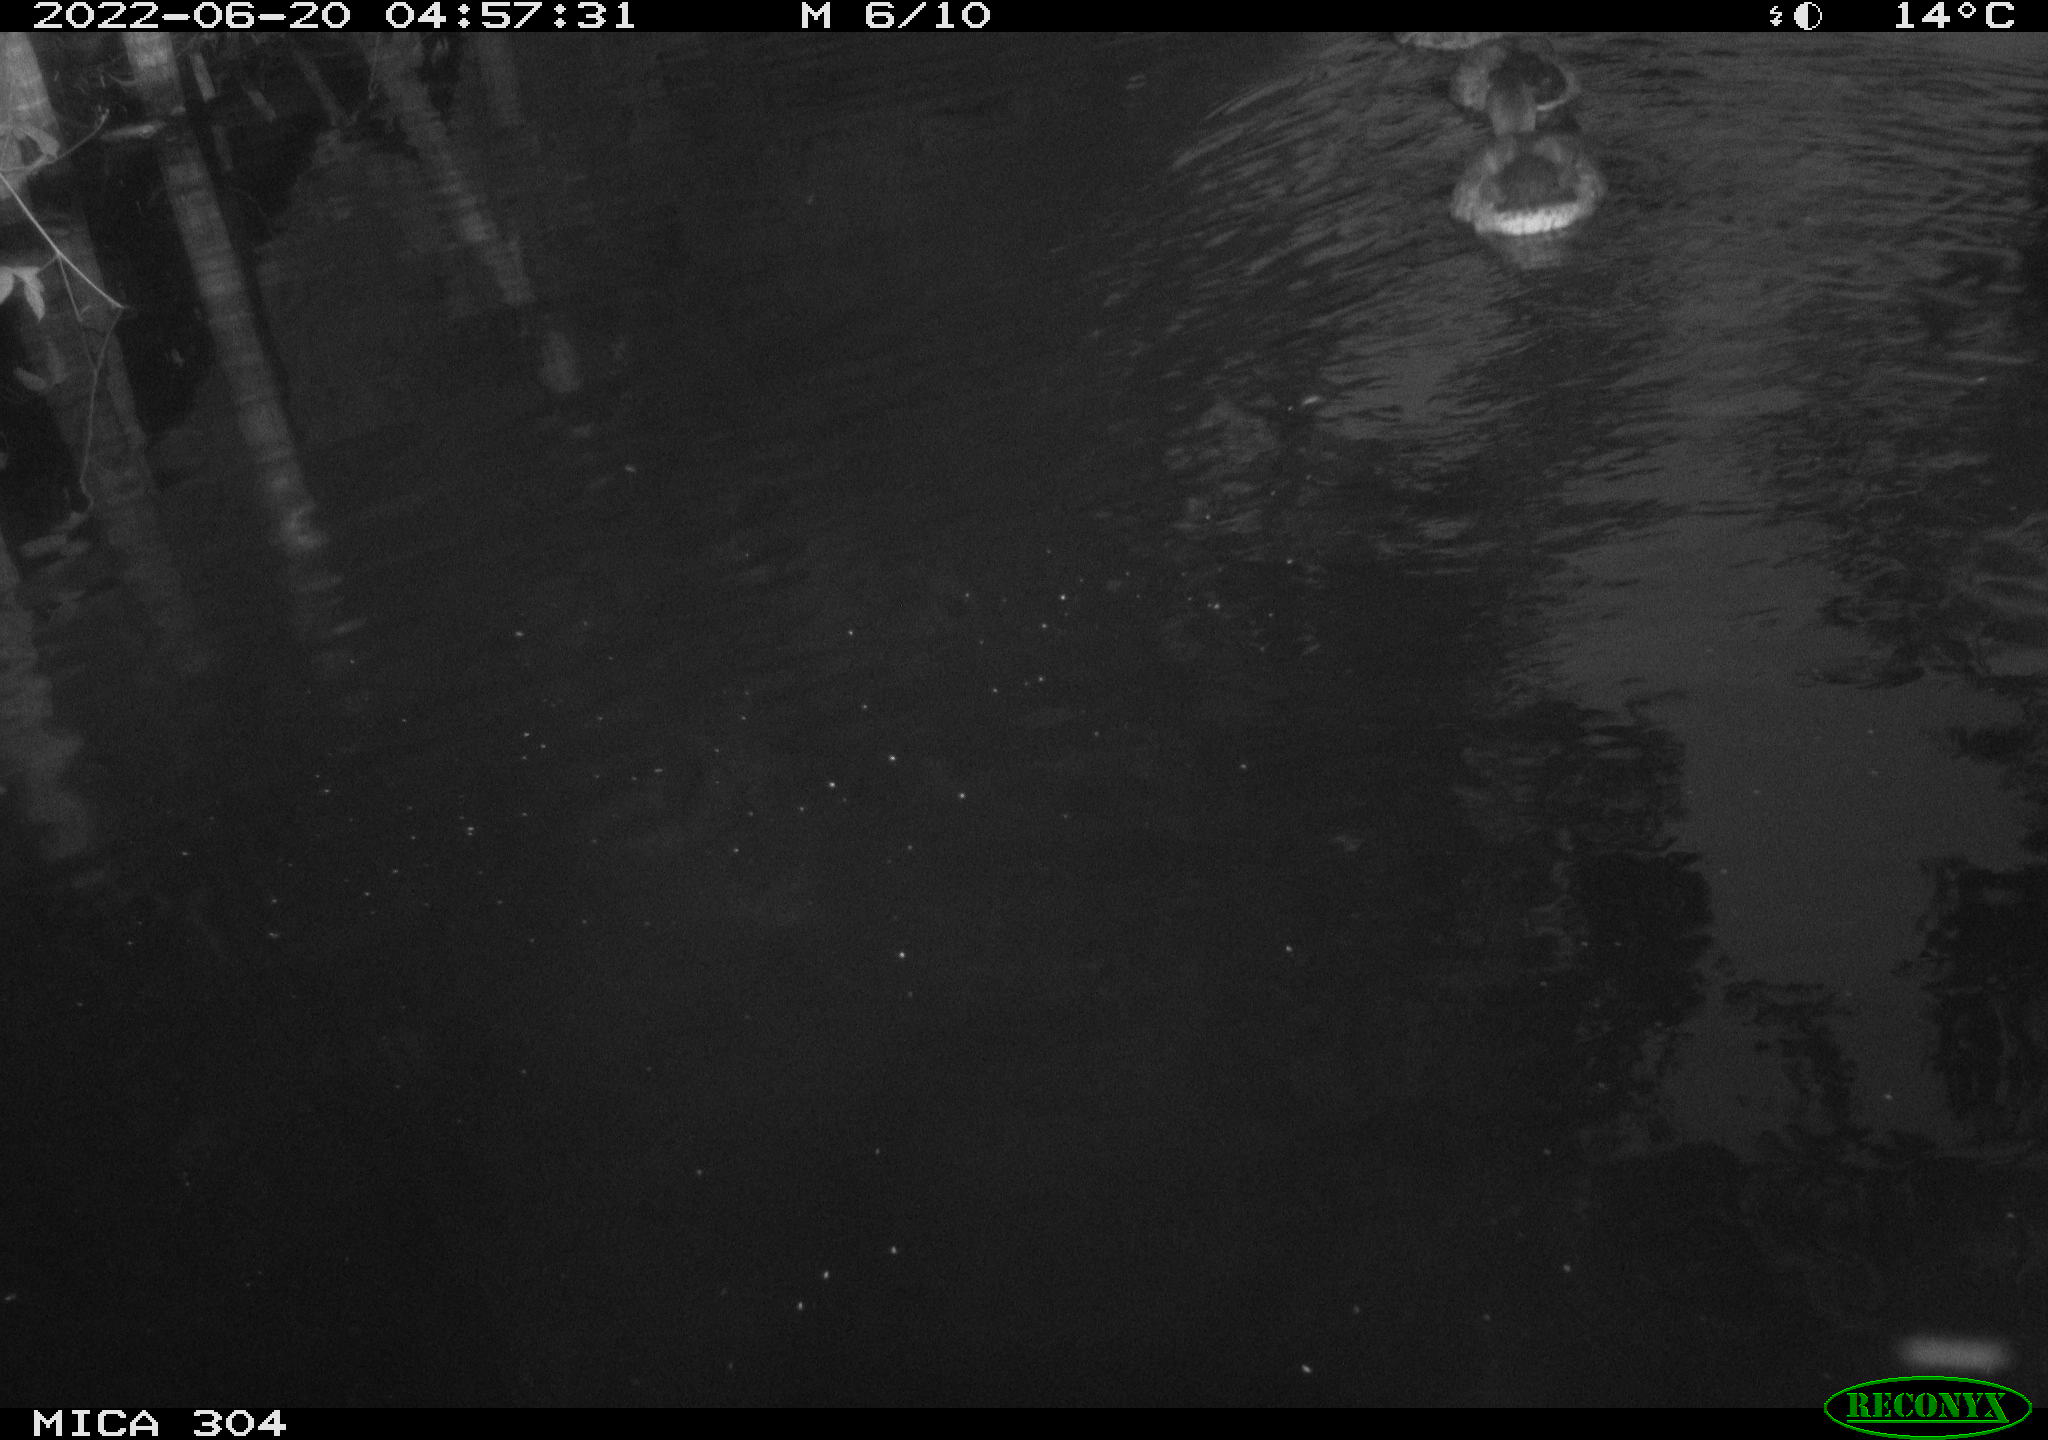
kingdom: Animalia
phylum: Chordata
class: Aves
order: Anseriformes
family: Anatidae
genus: Anas
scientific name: Anas platyrhynchos
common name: Mallard
